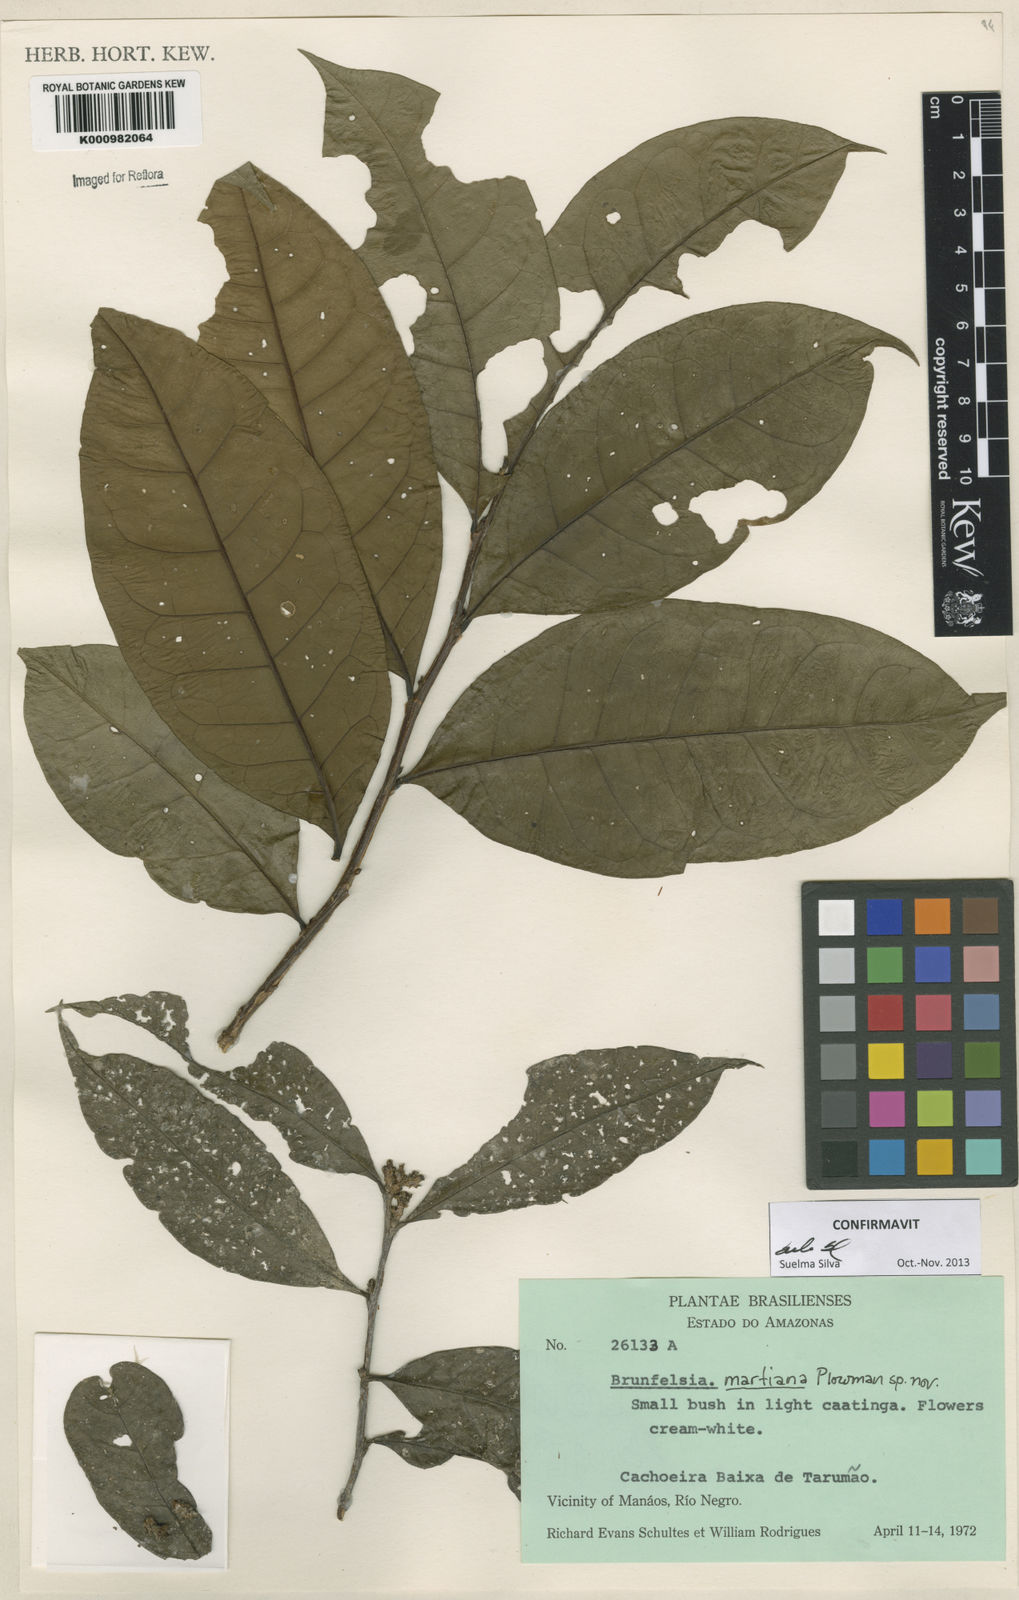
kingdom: Plantae
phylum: Tracheophyta
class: Magnoliopsida
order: Solanales
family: Solanaceae
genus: Brunfelsia
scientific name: Brunfelsia martiana
